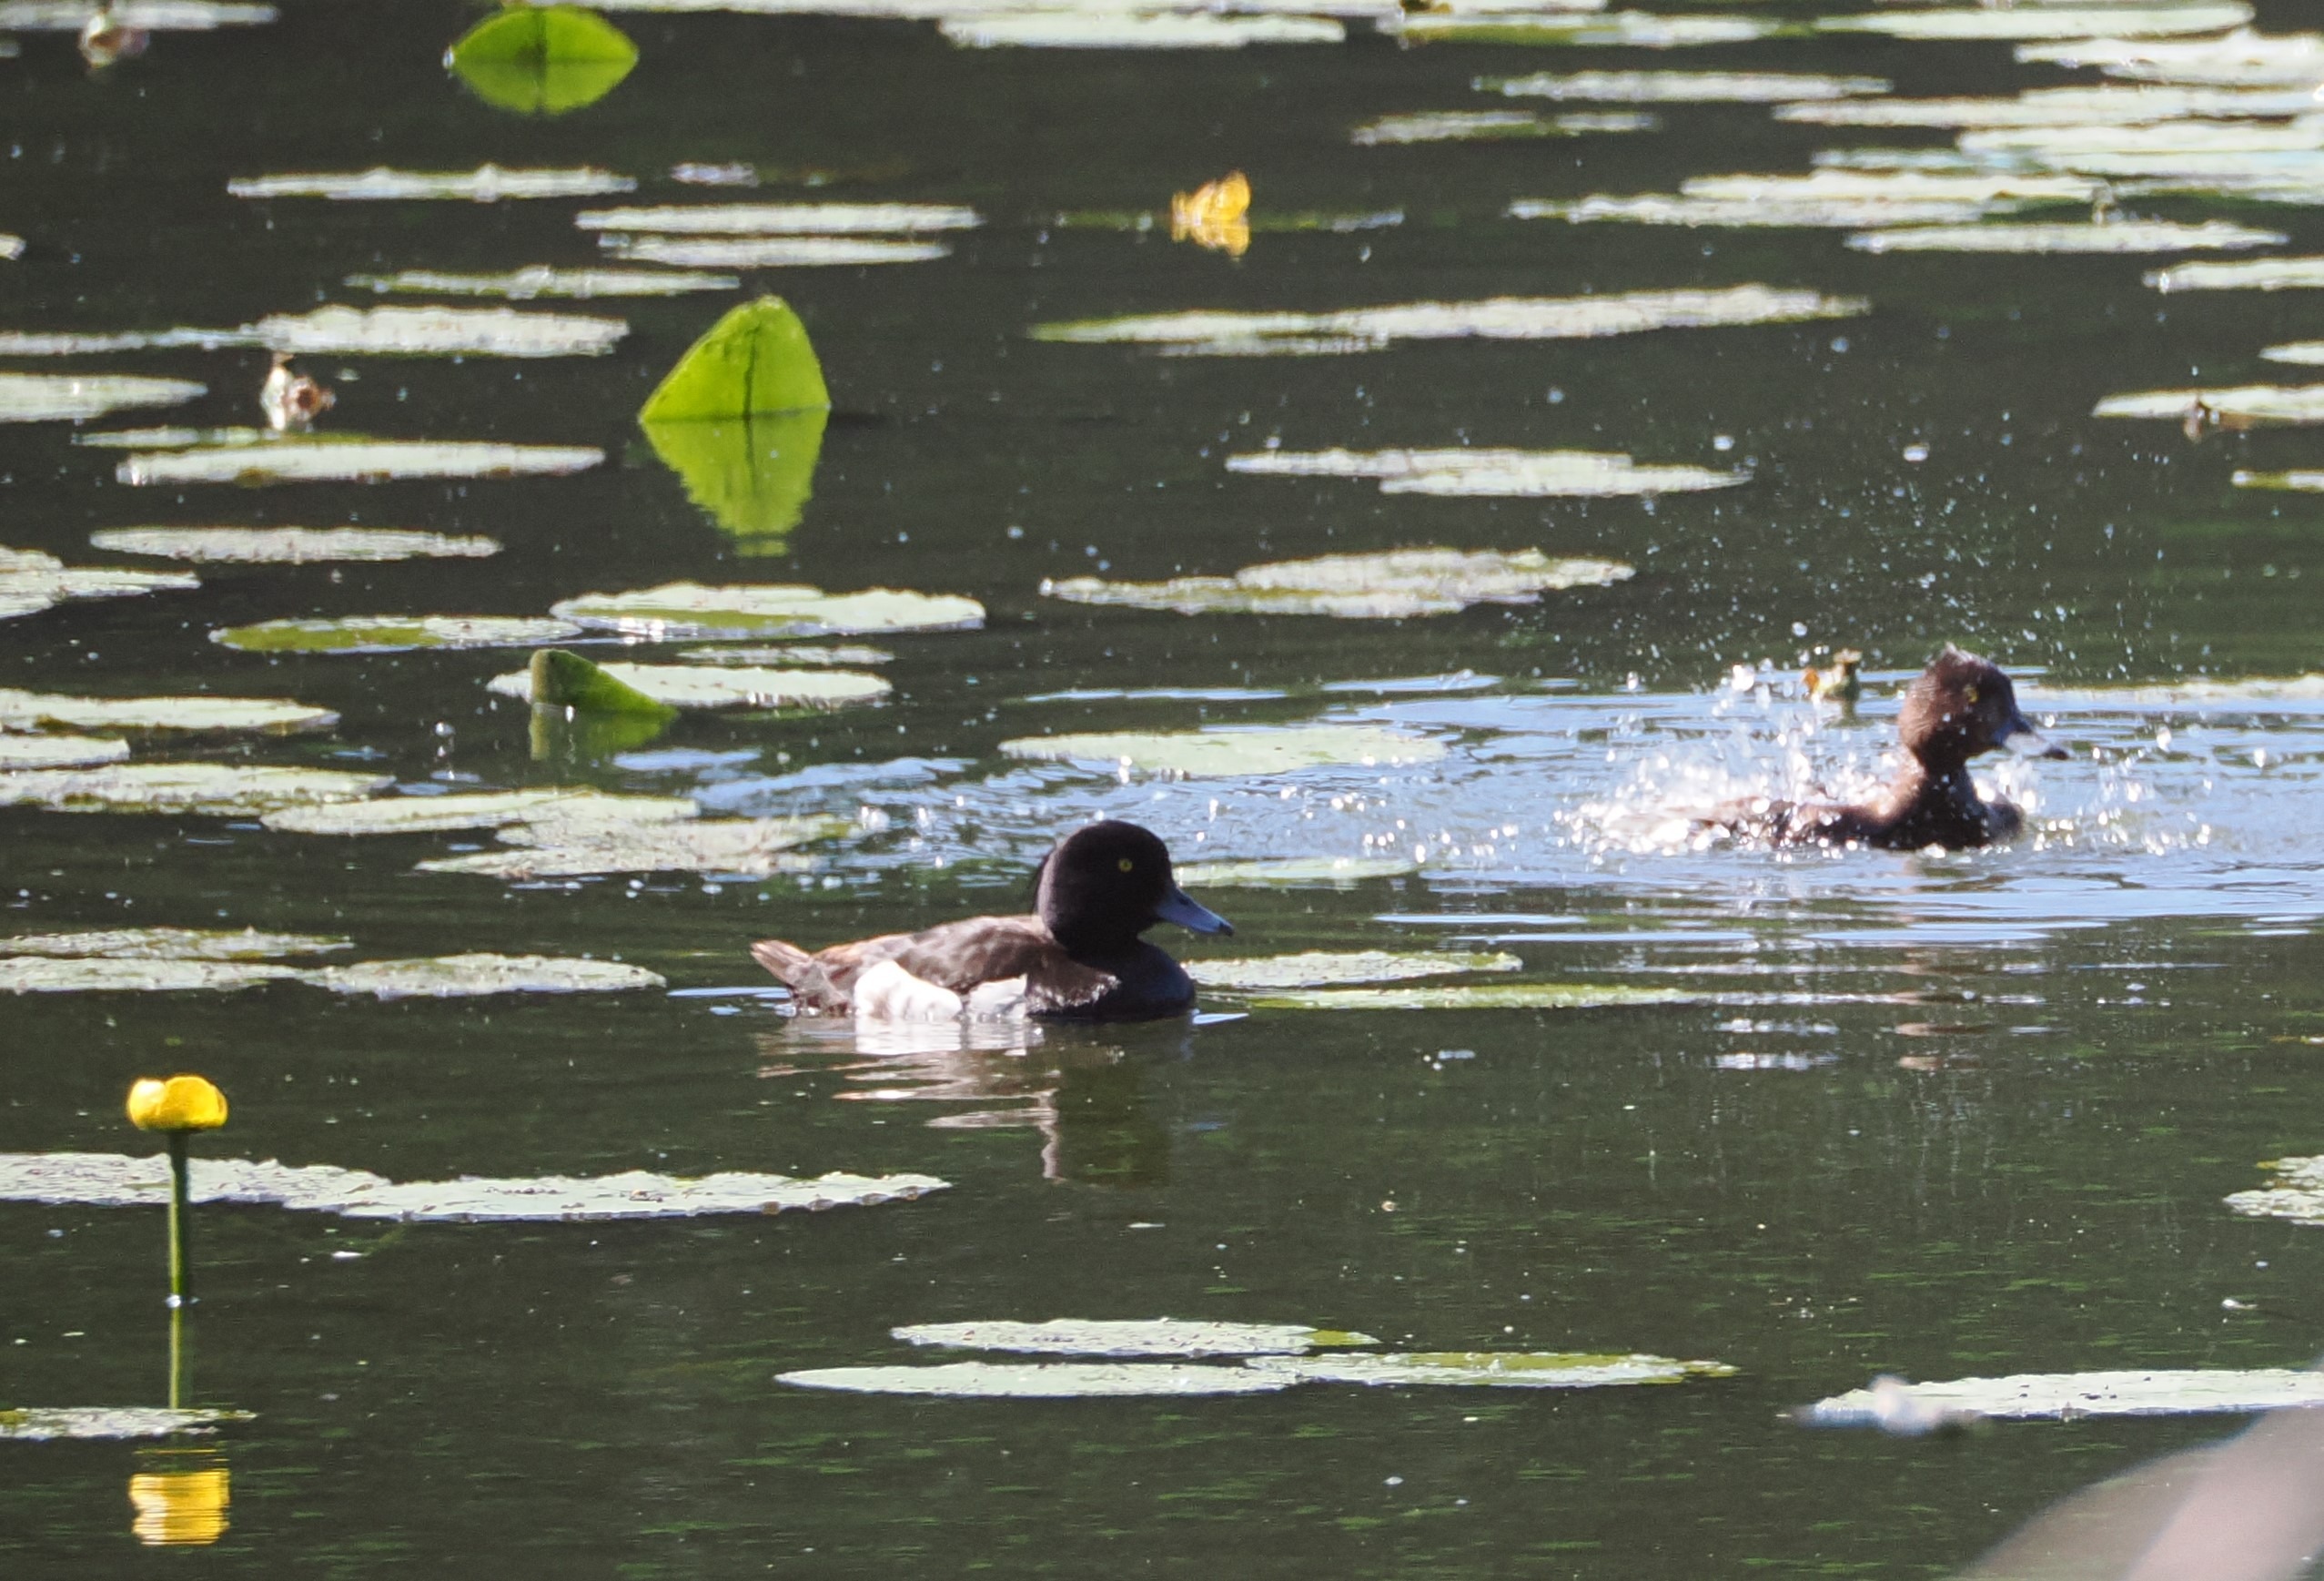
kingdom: Animalia
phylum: Chordata
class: Aves
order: Anseriformes
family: Anatidae
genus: Aythya
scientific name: Aythya fuligula
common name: Troldand
